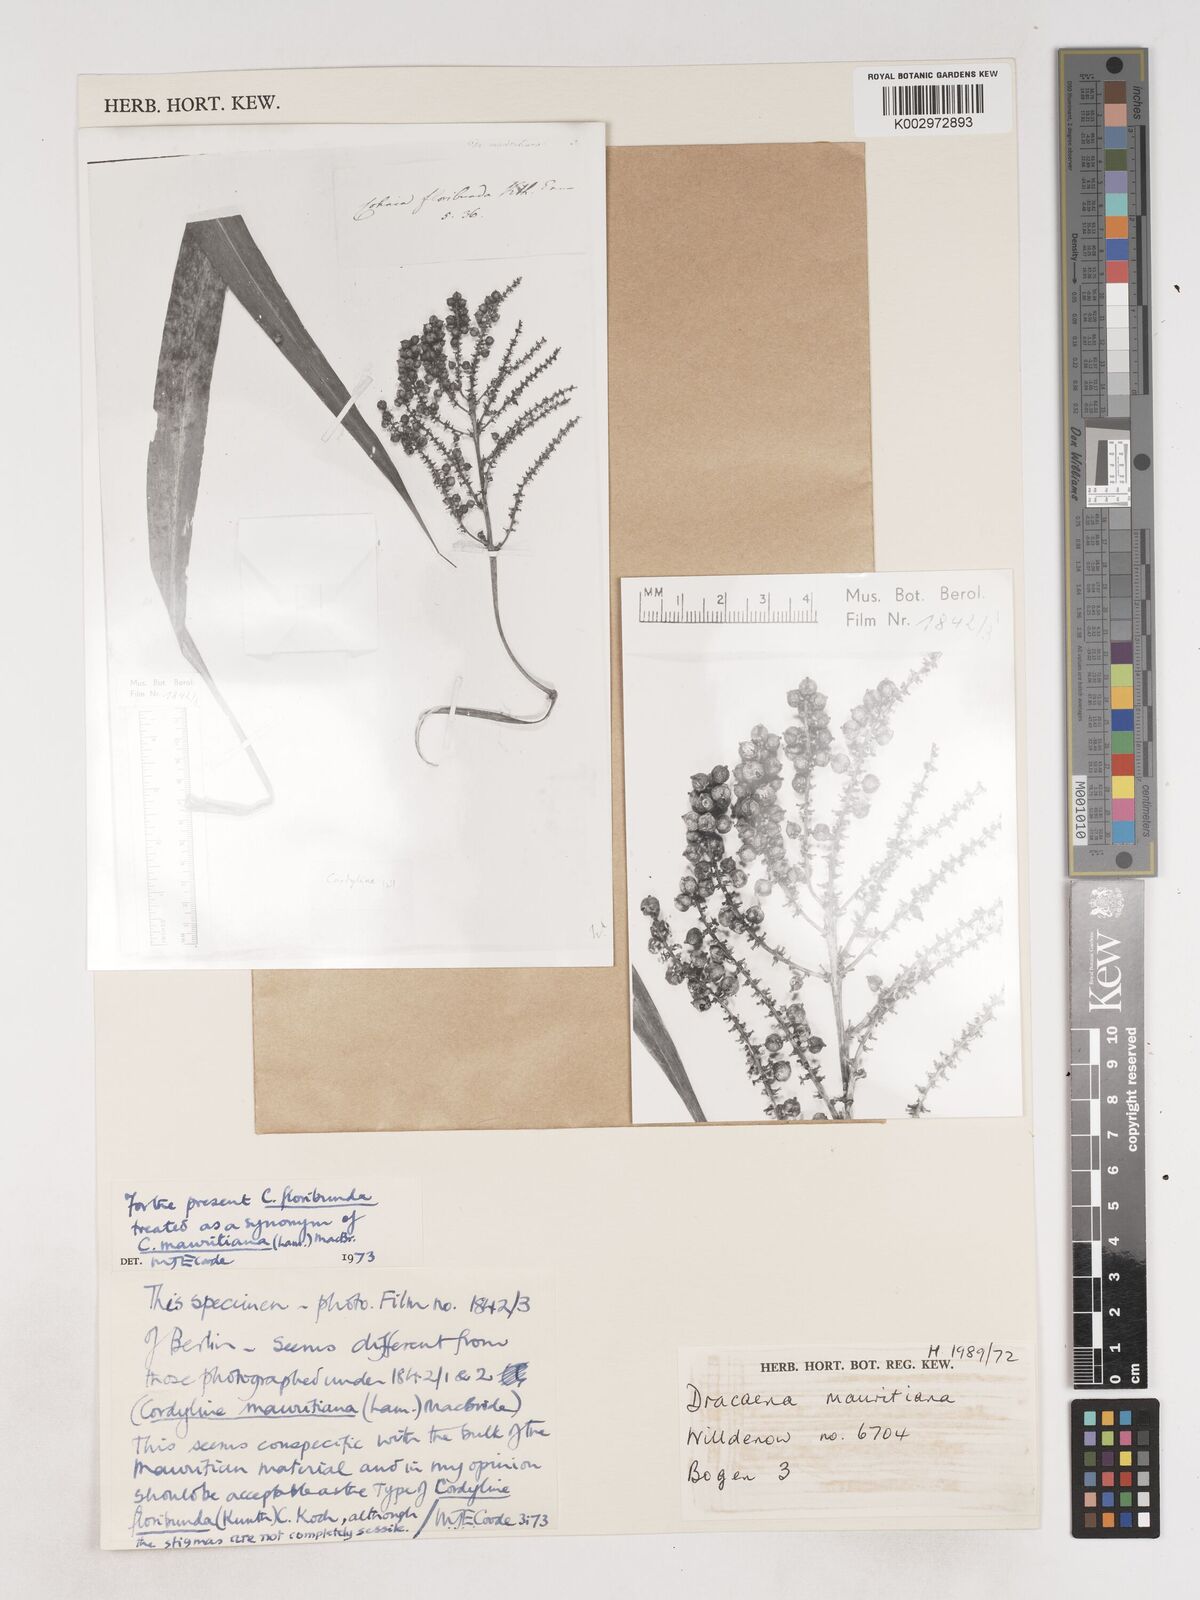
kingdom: Plantae
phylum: Tracheophyta
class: Liliopsida
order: Asparagales
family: Asparagaceae
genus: Cordyline
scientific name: Cordyline mauritiana
